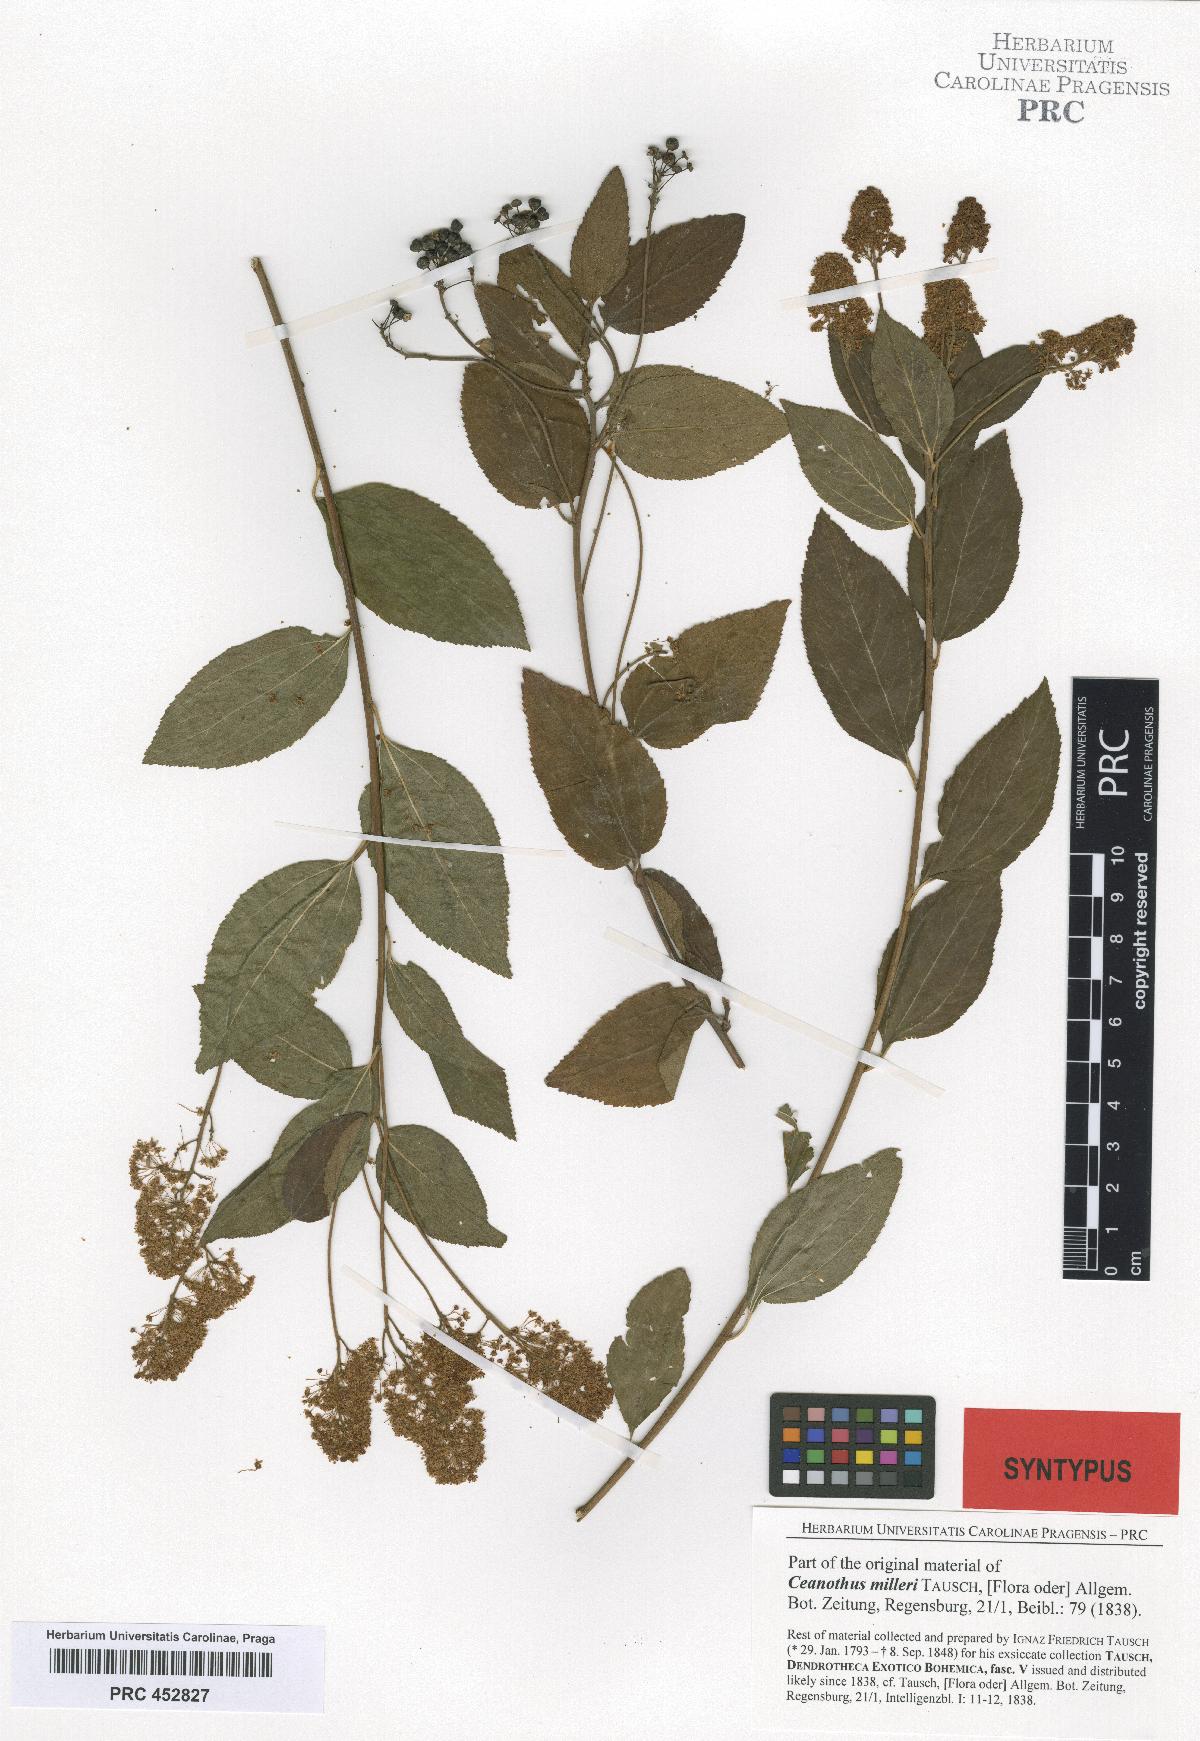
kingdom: Plantae
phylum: Tracheophyta
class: Magnoliopsida
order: Rosales
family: Rhamnaceae
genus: Ceanothus
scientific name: Ceanothus americanus
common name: Redroot
